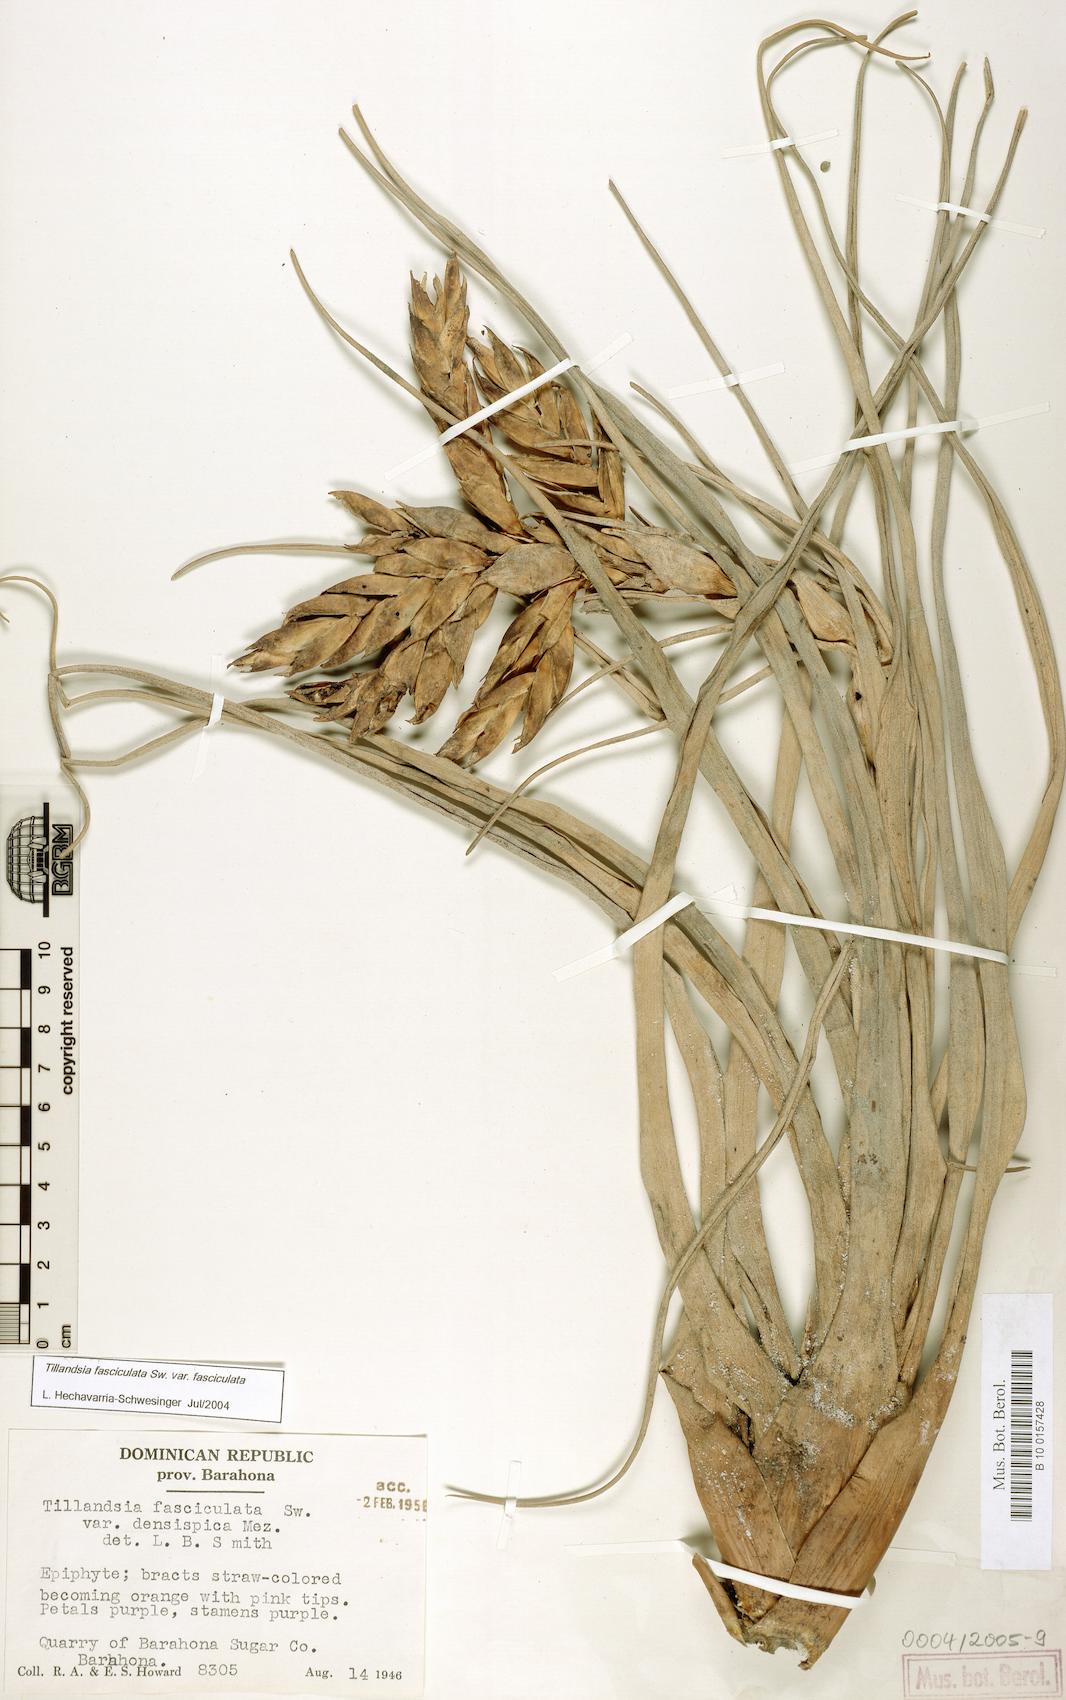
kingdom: Plantae
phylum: Tracheophyta
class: Liliopsida
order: Poales
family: Bromeliaceae
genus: Tillandsia
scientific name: Tillandsia fasciculata
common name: Giant airplant
